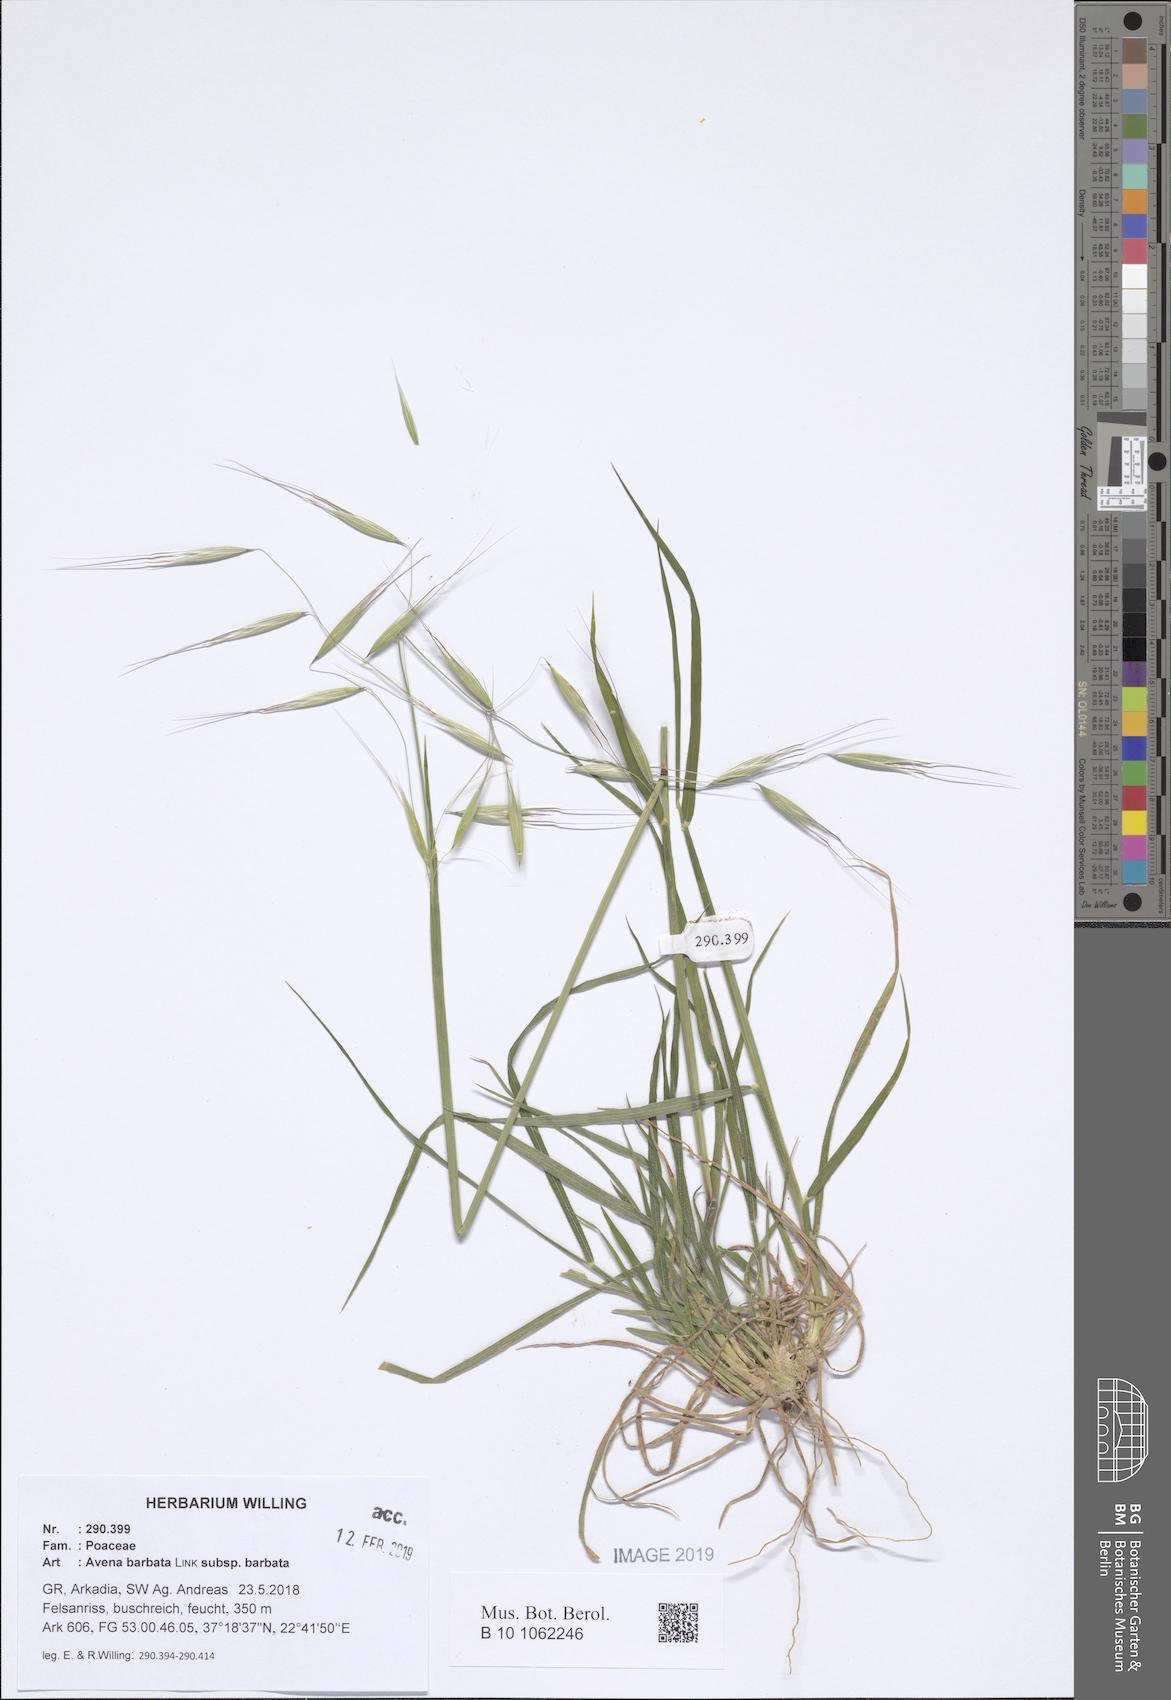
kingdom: Plantae
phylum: Tracheophyta
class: Liliopsida
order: Poales
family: Poaceae
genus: Avena
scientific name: Avena barbata
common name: Slender oat
